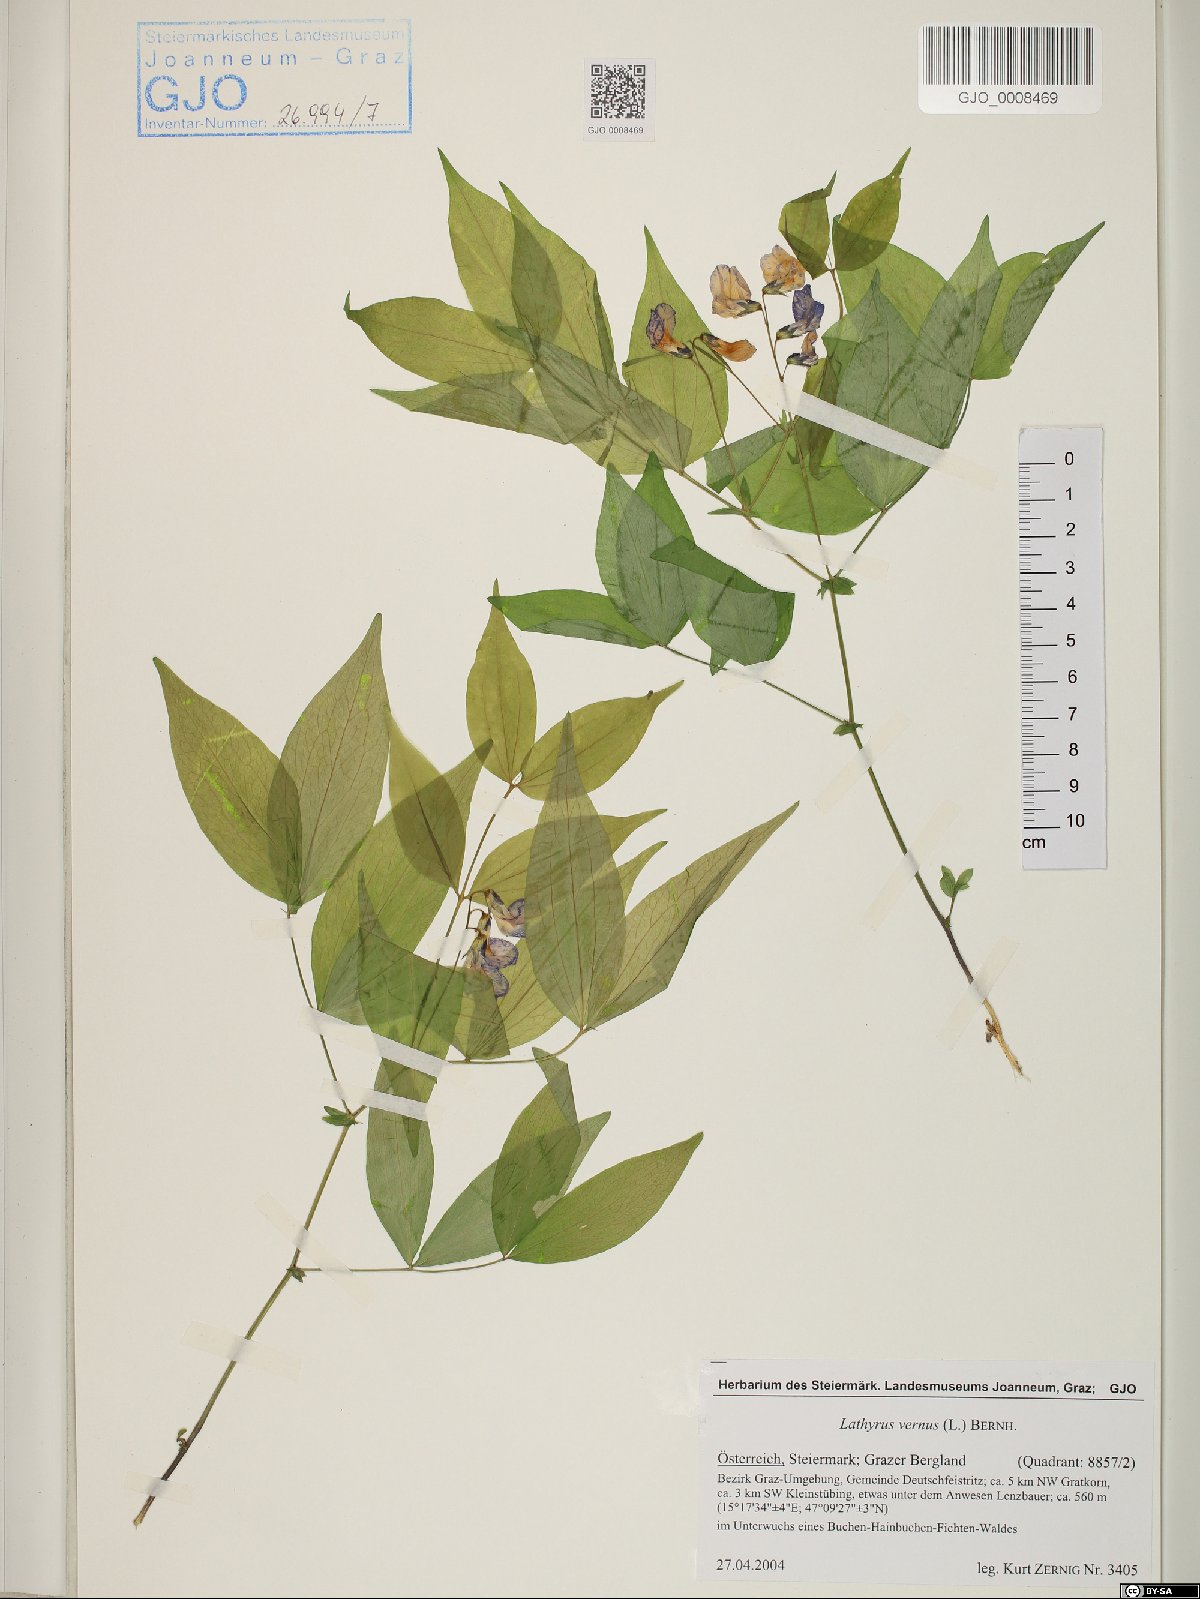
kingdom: Plantae
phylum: Tracheophyta
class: Magnoliopsida
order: Fabales
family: Fabaceae
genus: Lathyrus
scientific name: Lathyrus vernus
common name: Spring pea
